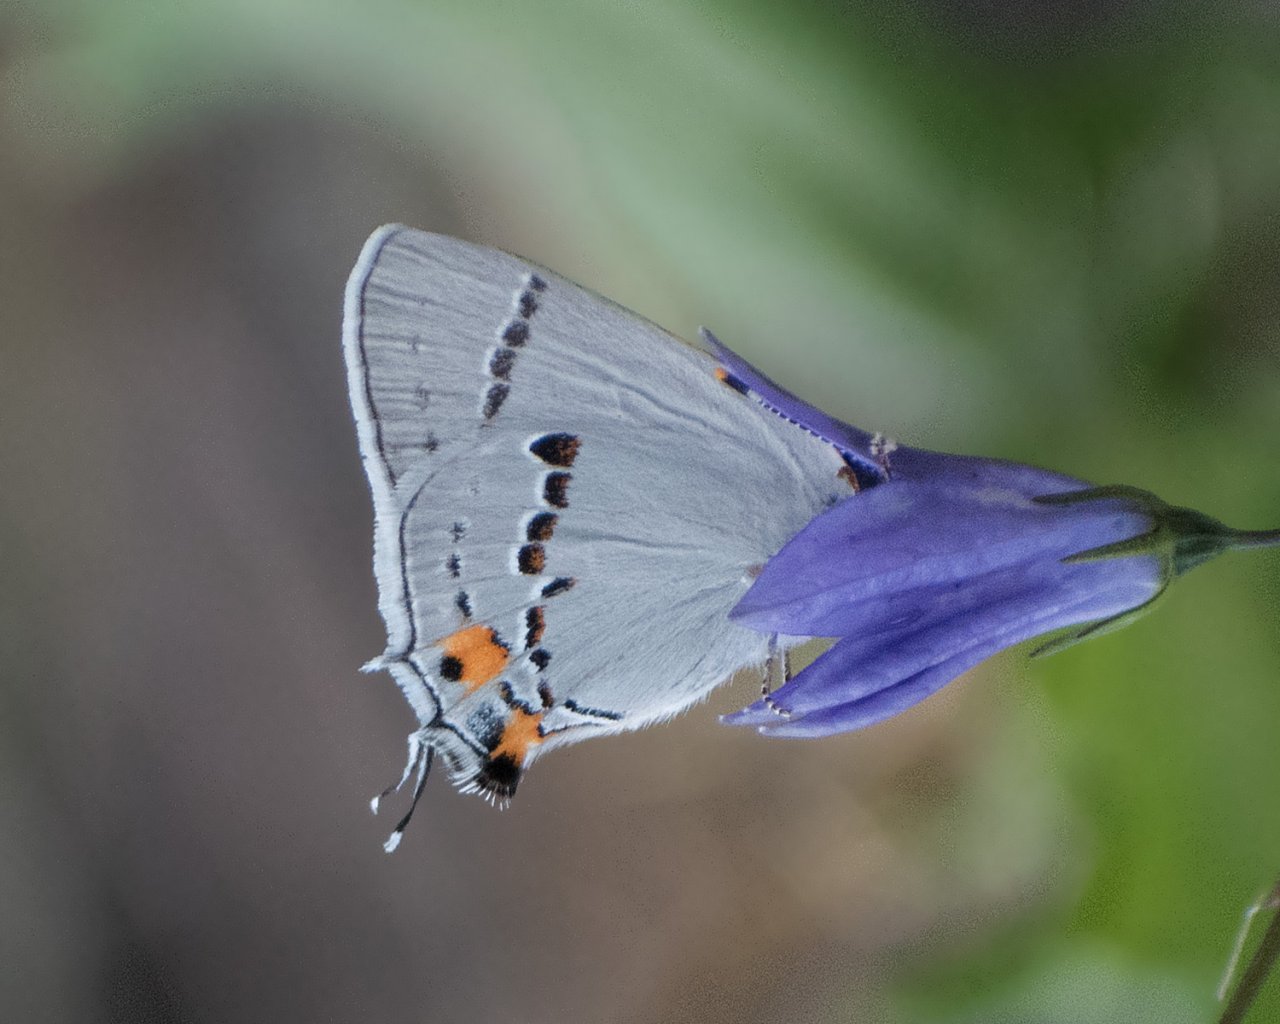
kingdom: Animalia
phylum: Arthropoda
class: Insecta
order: Lepidoptera
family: Lycaenidae
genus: Strymon
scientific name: Strymon melinus
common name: Gray Hairstreak
